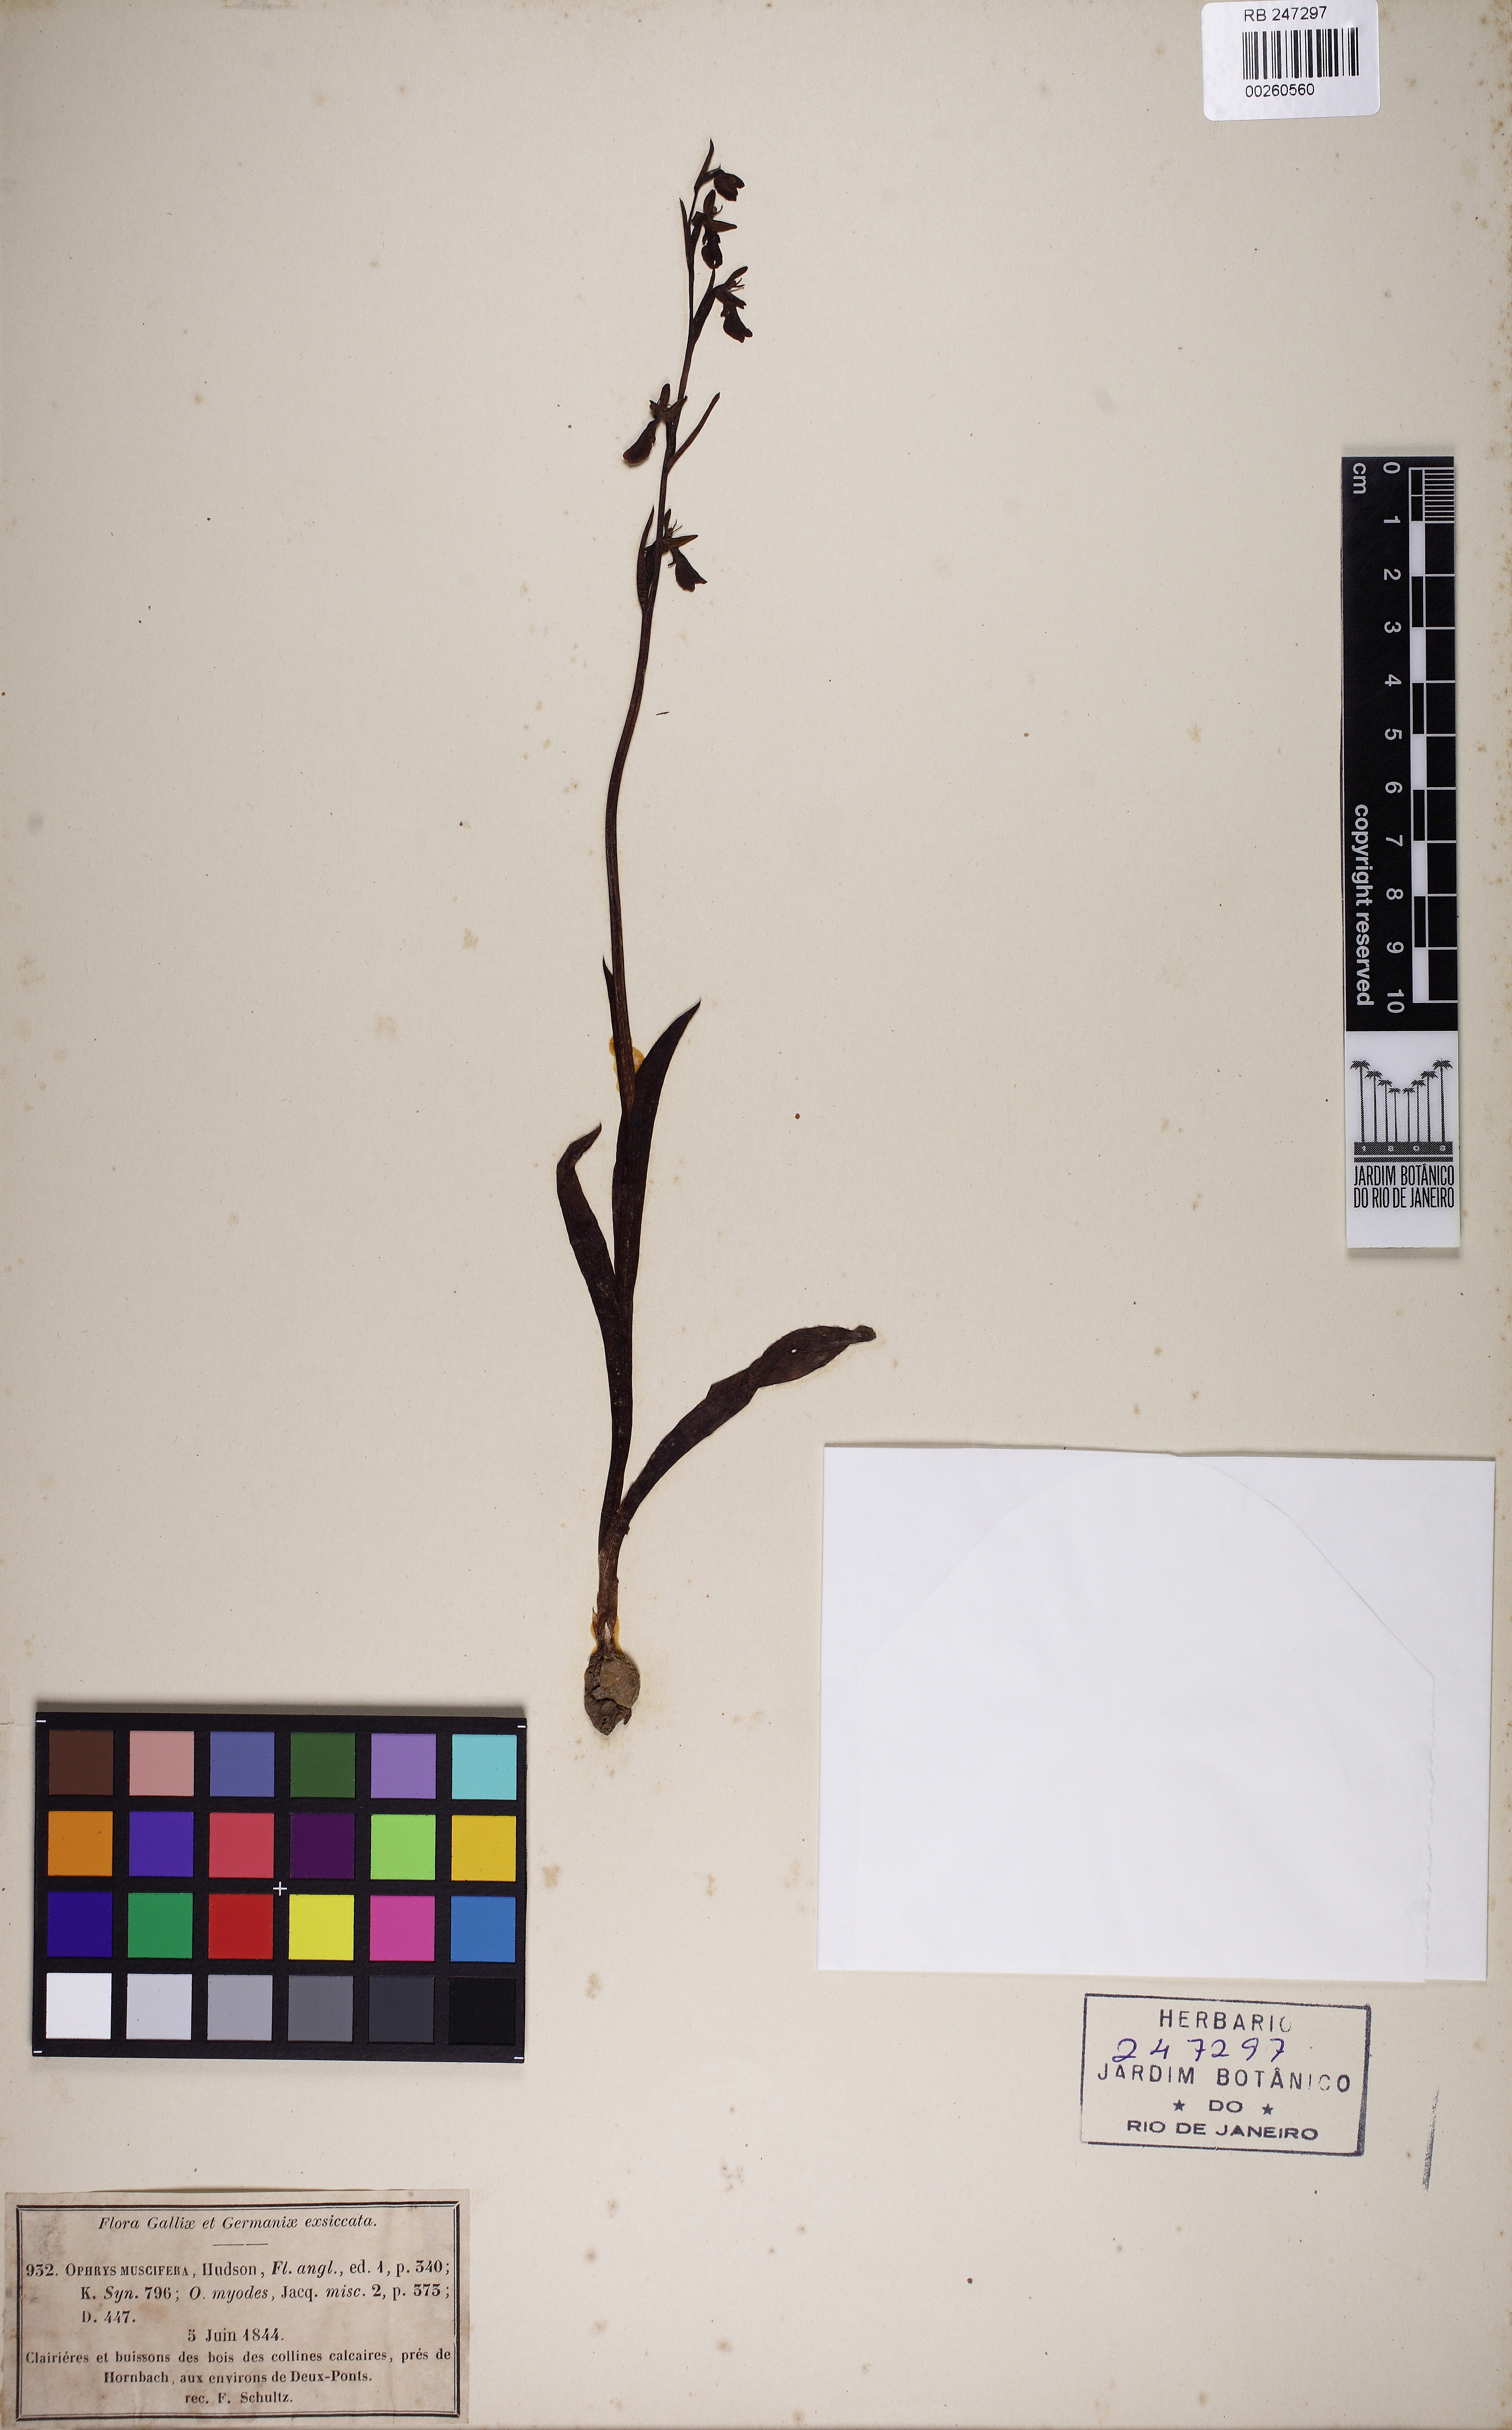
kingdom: Plantae
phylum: Tracheophyta
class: Liliopsida
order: Asparagales
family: Orchidaceae
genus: Ophrys
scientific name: Ophrys insectifera
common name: Fly orchid
